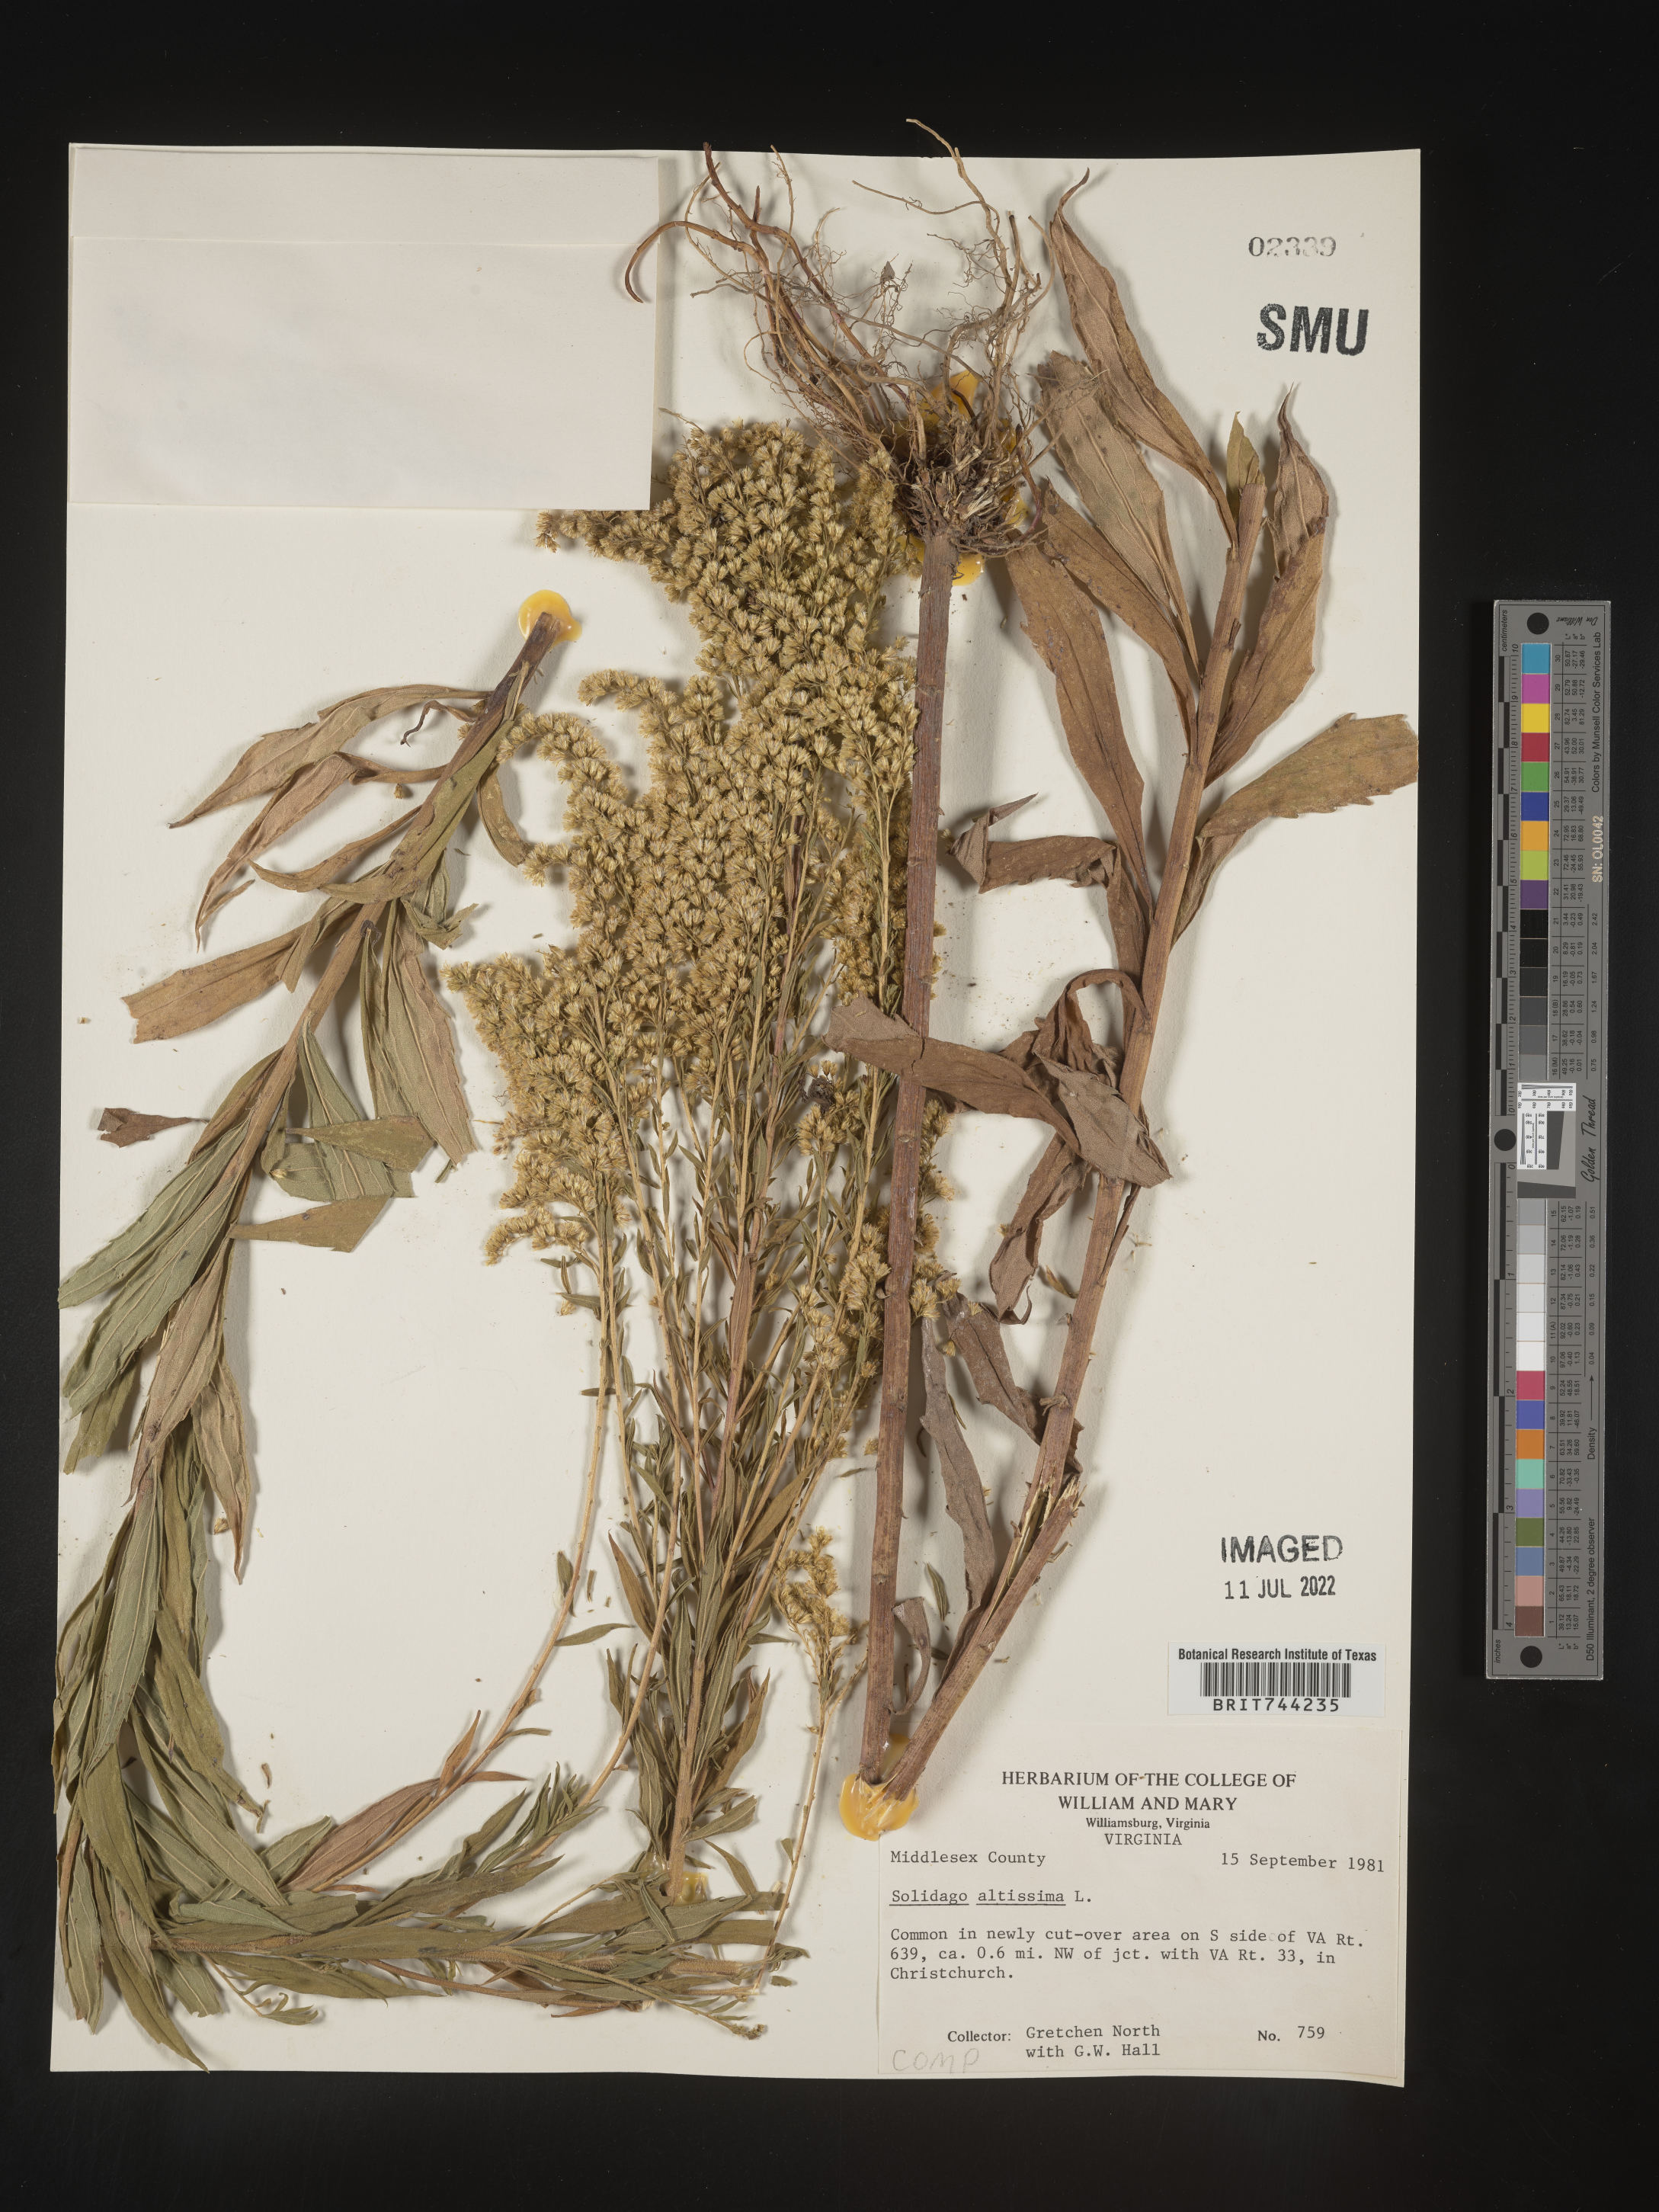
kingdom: Plantae
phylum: Tracheophyta
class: Magnoliopsida
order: Asterales
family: Asteraceae
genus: Solidago
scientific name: Solidago altissima
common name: Late goldenrod
